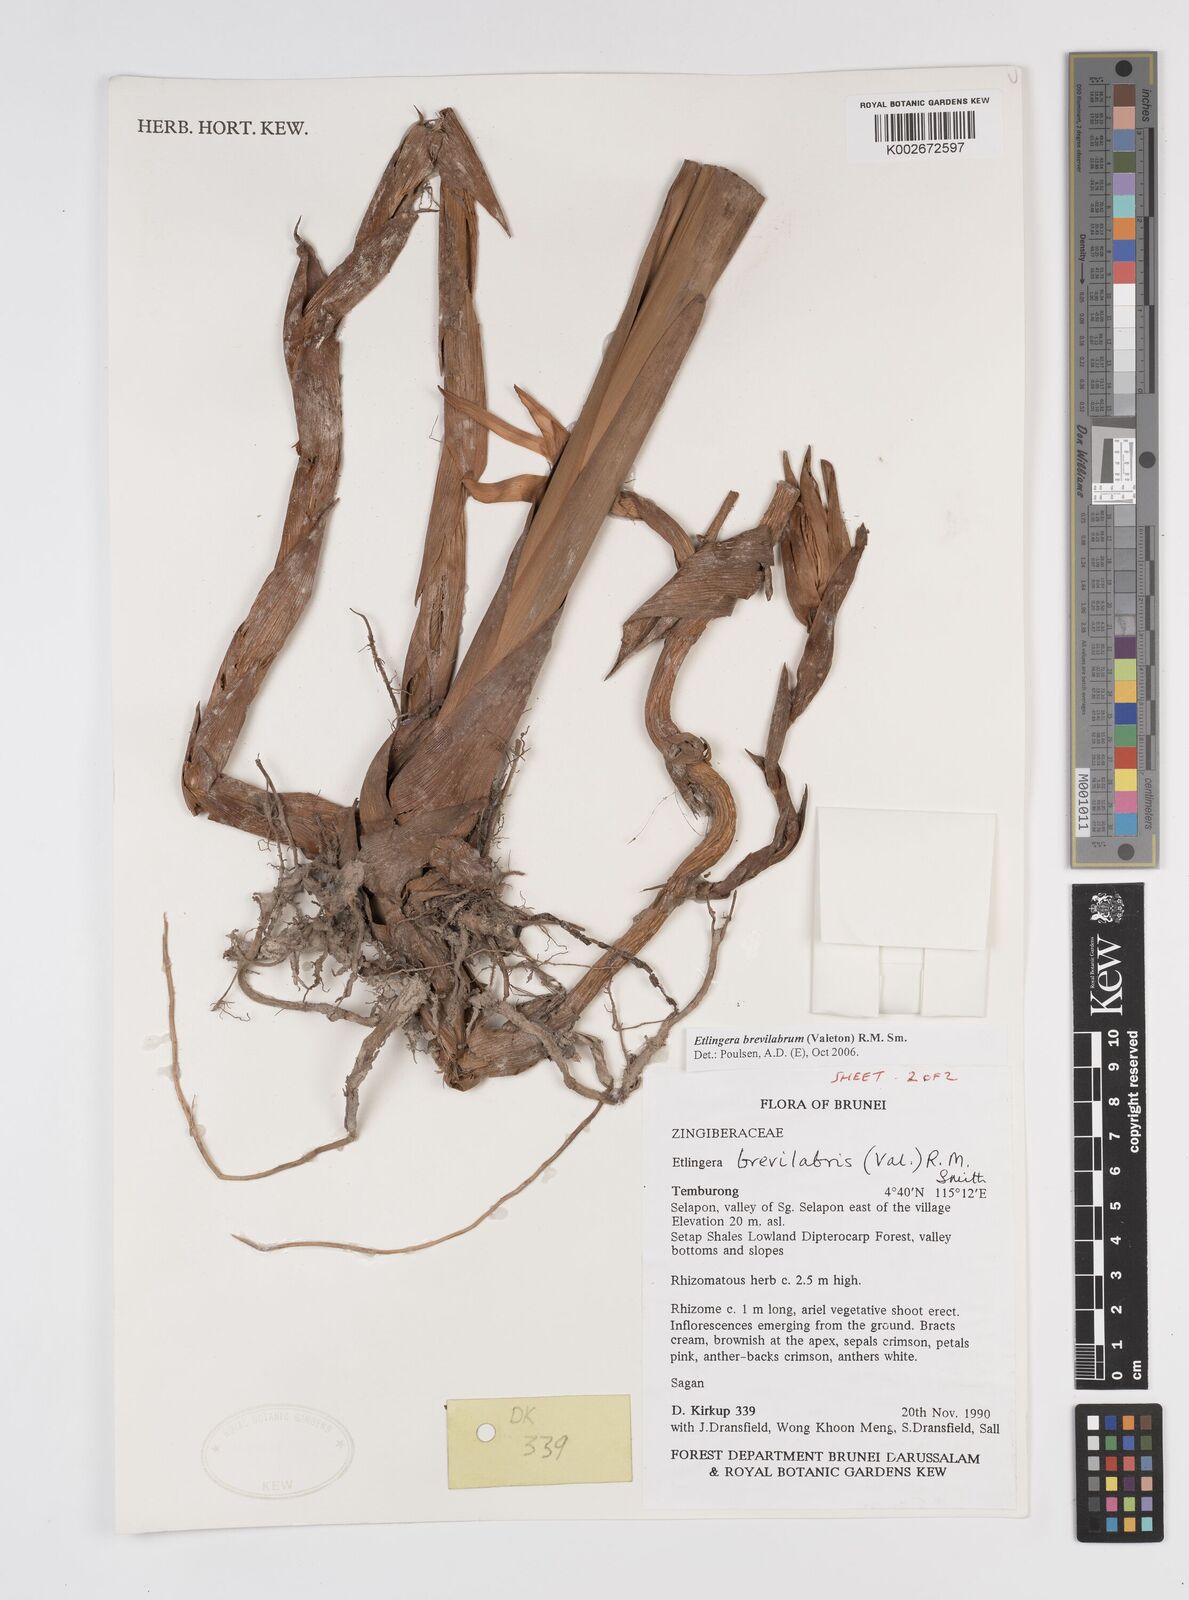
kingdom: Plantae
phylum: Tracheophyta
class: Liliopsida
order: Zingiberales
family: Zingiberaceae
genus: Etlingera
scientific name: Etlingera brevilabrum
